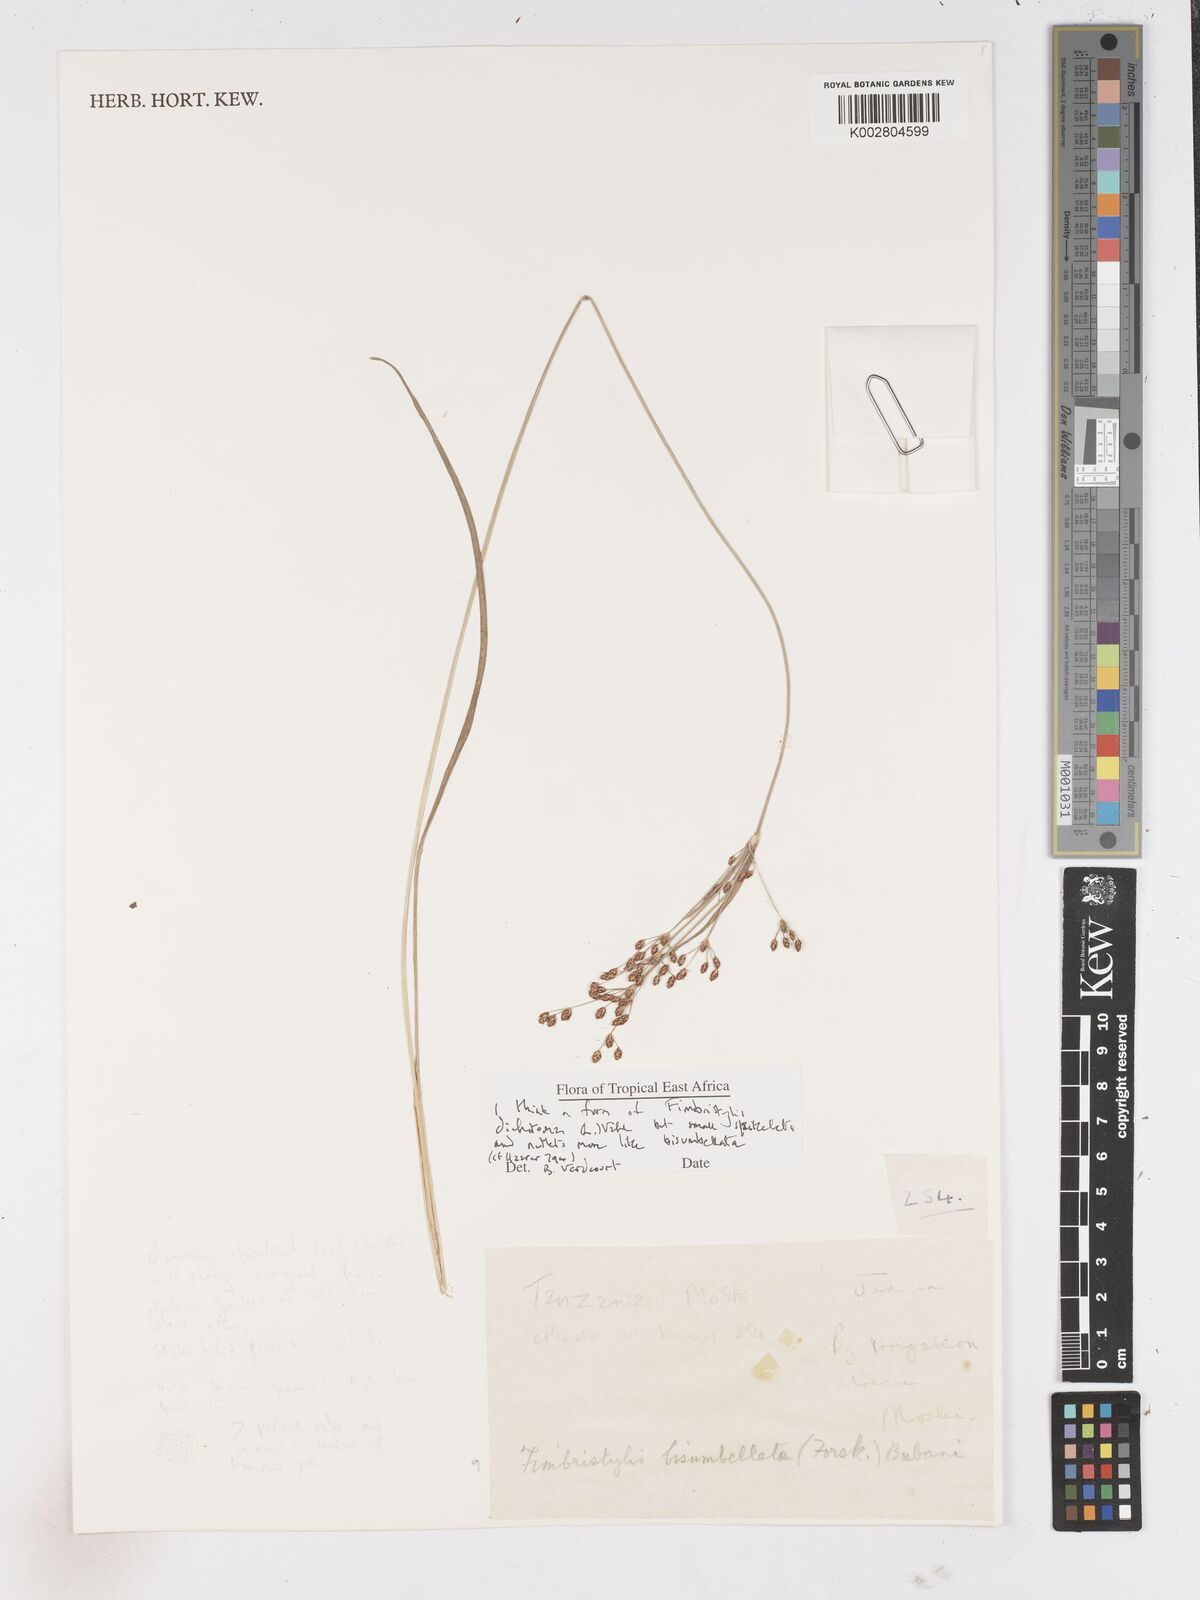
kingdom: Plantae
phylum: Tracheophyta
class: Liliopsida
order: Poales
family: Cyperaceae
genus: Fimbristylis
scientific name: Fimbristylis dichotoma
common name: Forked fimbry
